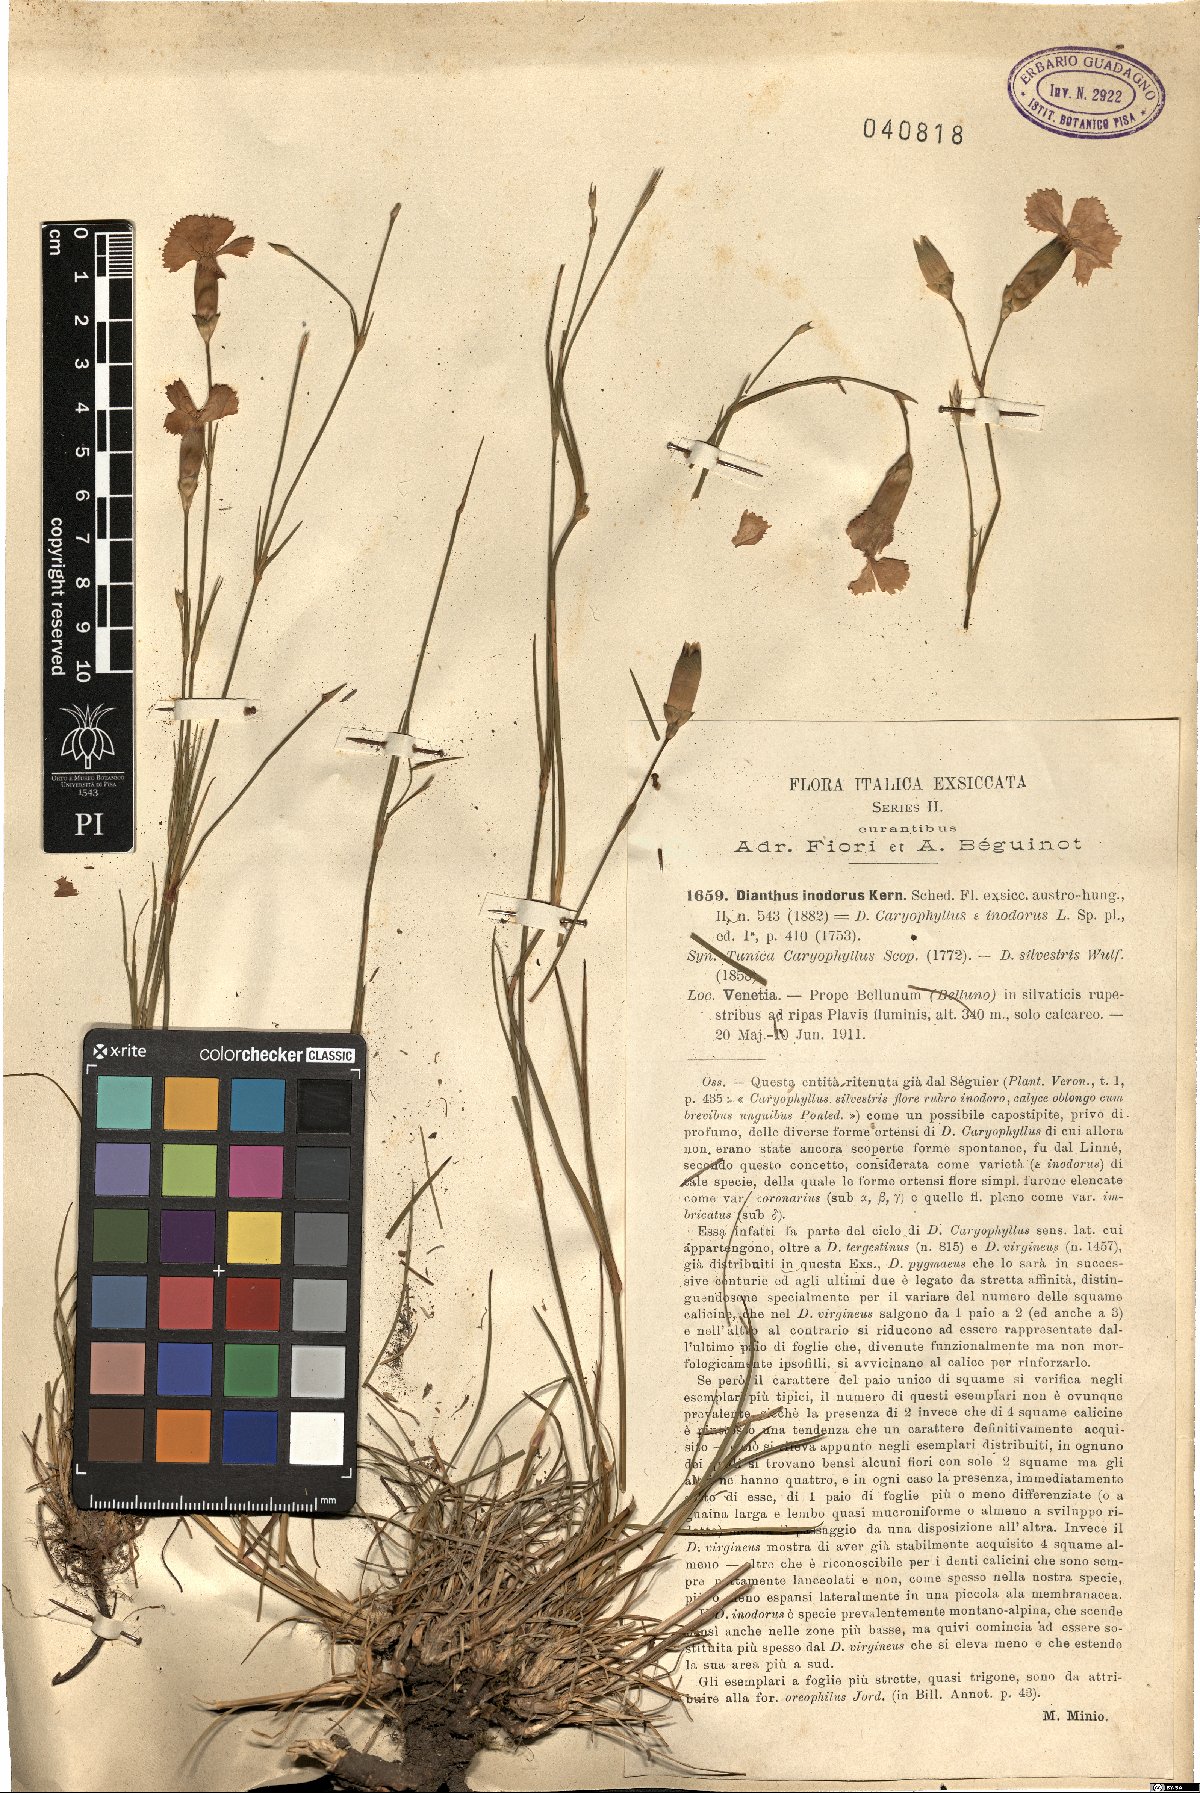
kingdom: Plantae
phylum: Tracheophyta
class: Magnoliopsida
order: Caryophyllales
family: Caryophyllaceae
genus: Dianthus
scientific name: Dianthus sylvestris
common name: Wood pink
